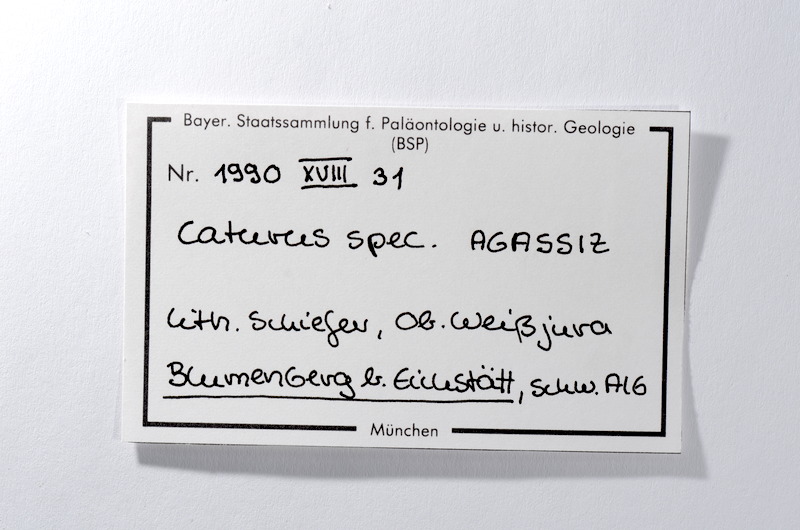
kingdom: Animalia
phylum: Chordata
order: Amiiformes
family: Caturidae
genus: Caturus
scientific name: Caturus
